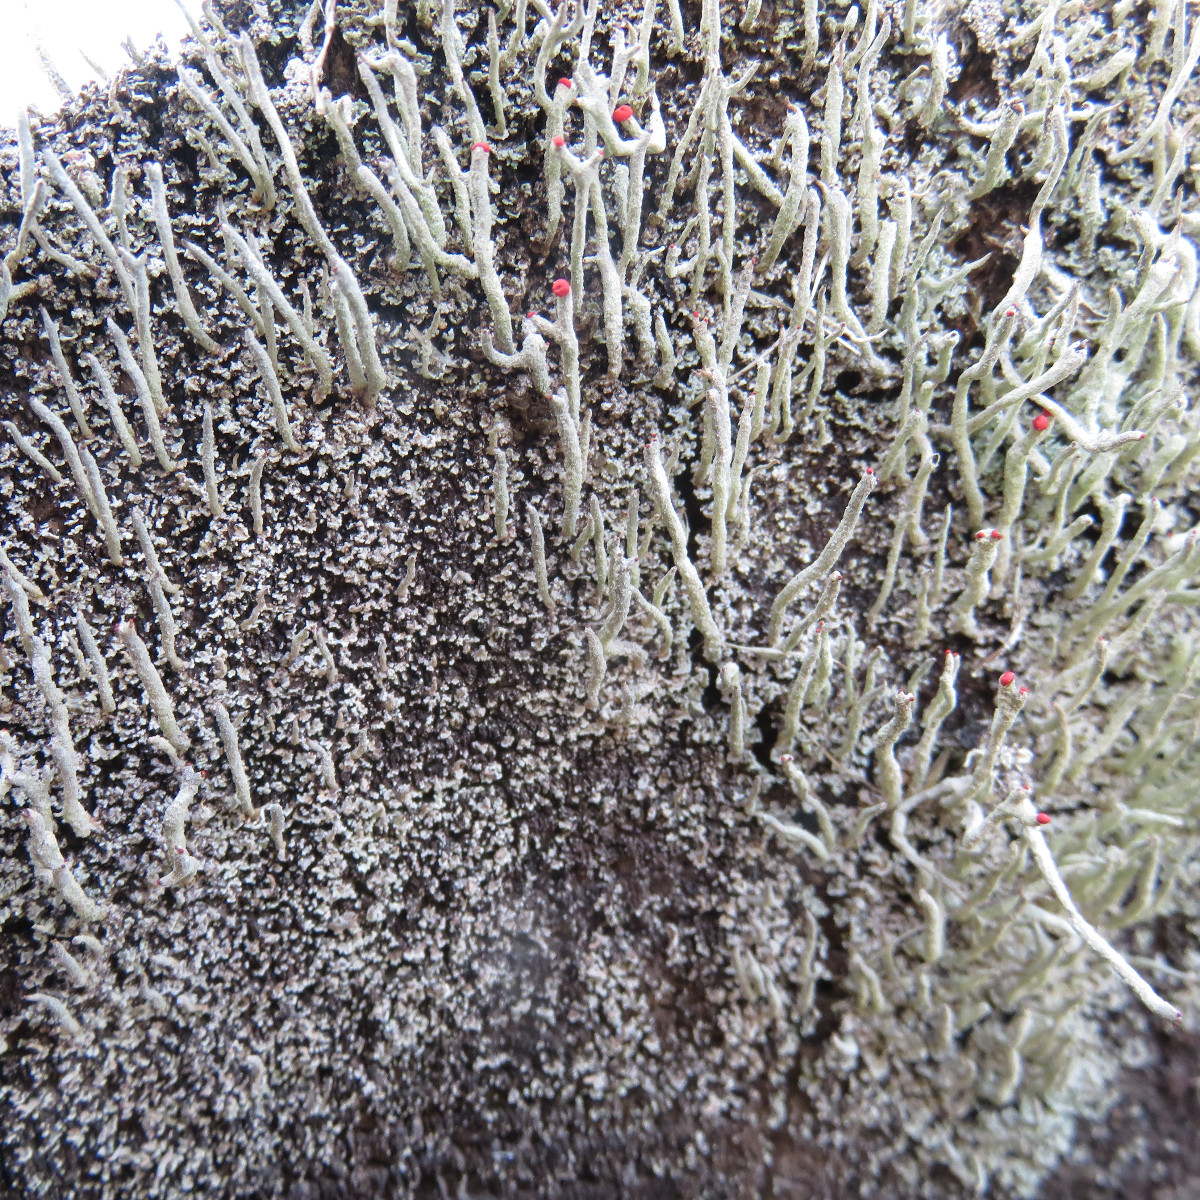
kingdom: Fungi
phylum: Ascomycota
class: Lecanoromycetes
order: Lecanorales
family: Cladoniaceae
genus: Cladonia
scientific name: Cladonia macilenta
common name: indsvunden bægerlav
